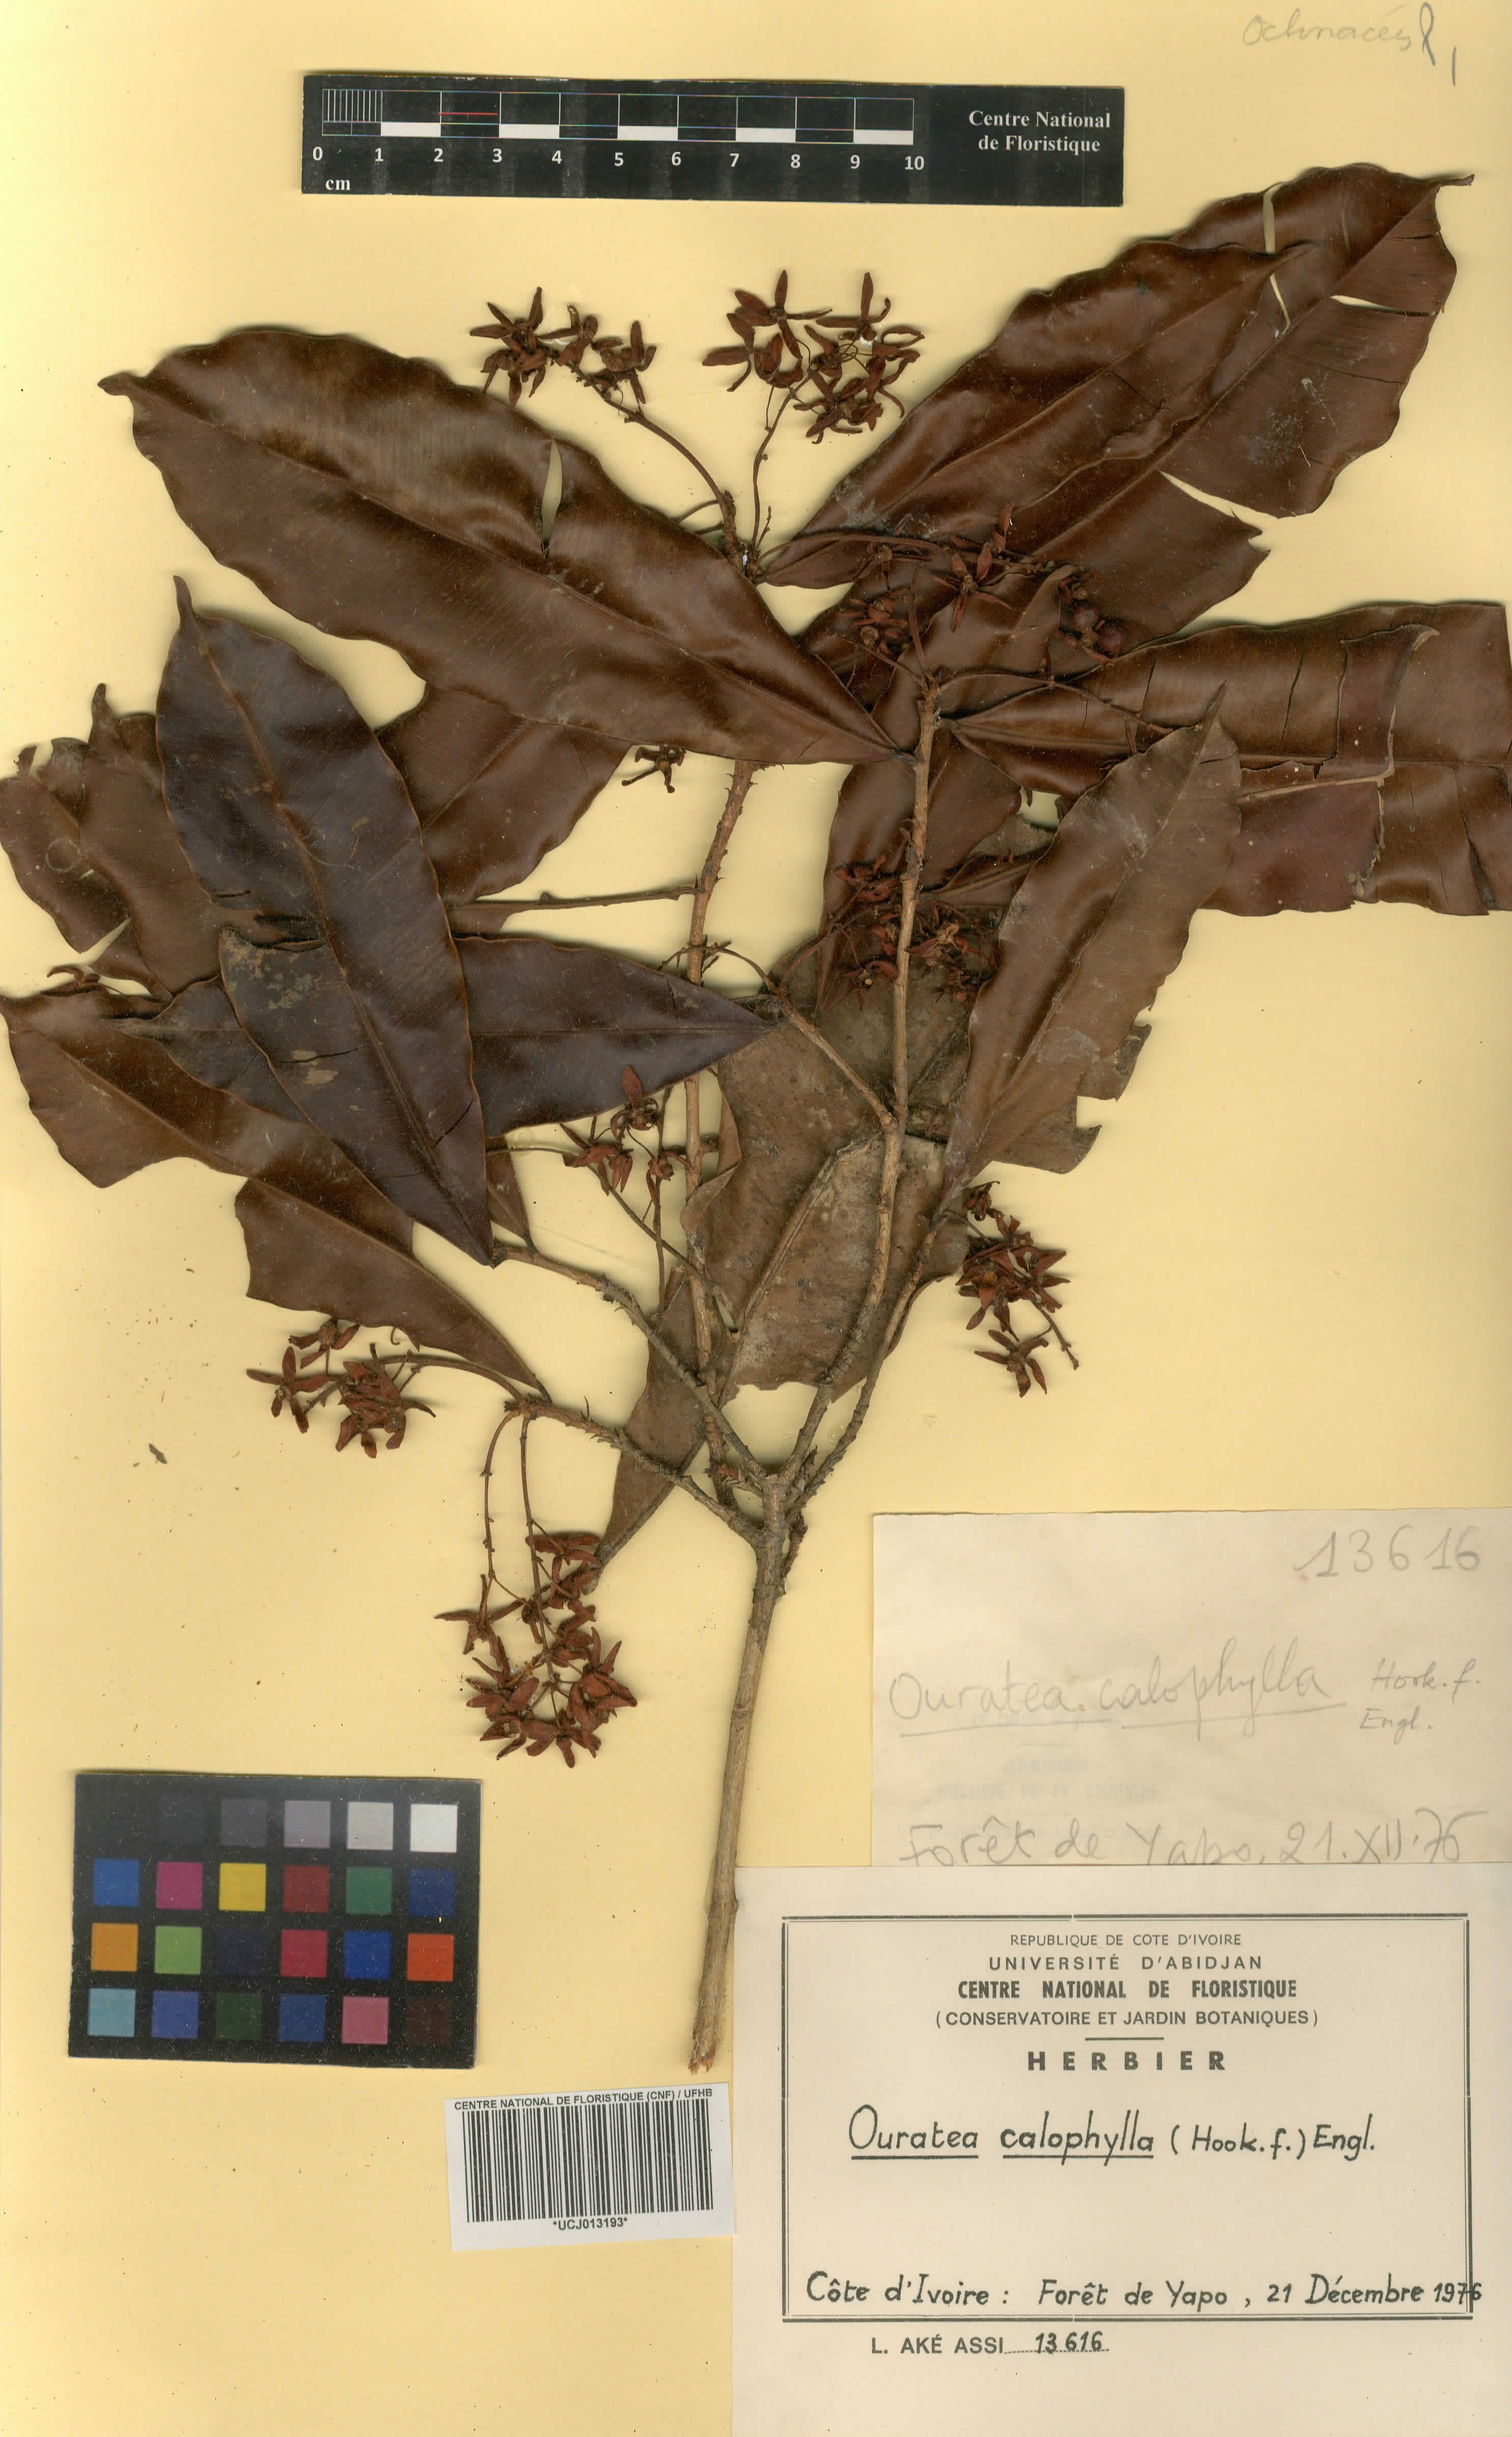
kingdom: Plantae
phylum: Tracheophyta
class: Magnoliopsida
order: Malpighiales
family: Ochnaceae
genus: Rhabdophyllum
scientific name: Rhabdophyllum calophyllum
